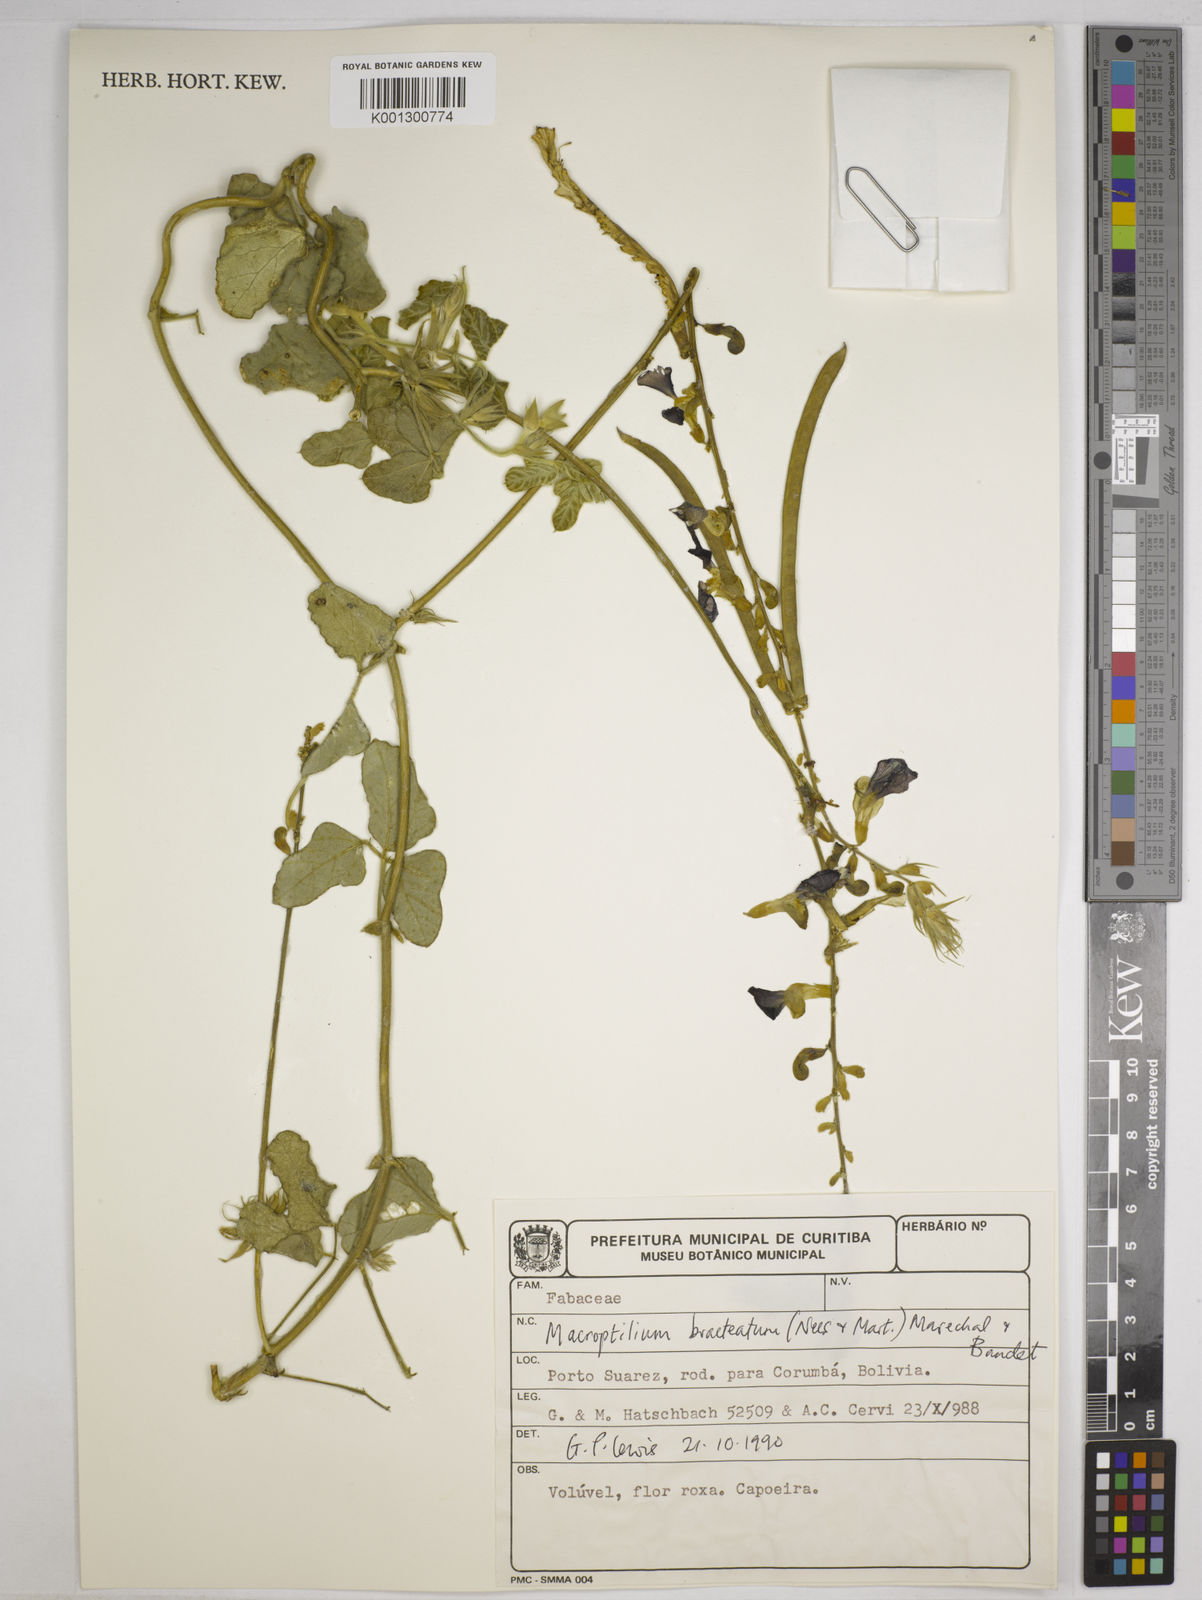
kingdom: Plantae
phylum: Tracheophyta
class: Magnoliopsida
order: Fabales
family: Fabaceae
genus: Macroptilium
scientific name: Macroptilium bracteatum
